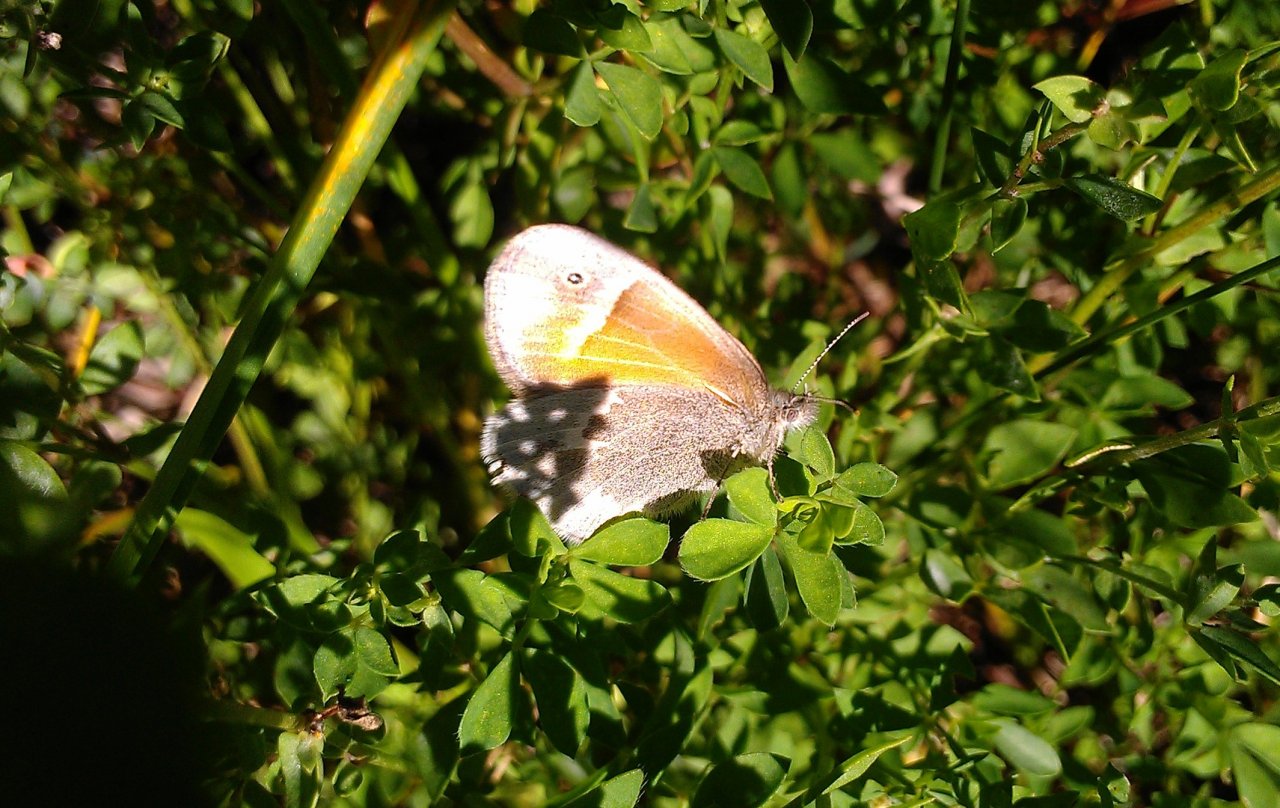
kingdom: Animalia
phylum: Arthropoda
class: Insecta
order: Lepidoptera
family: Nymphalidae
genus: Coenonympha
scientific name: Coenonympha tullia
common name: Large Heath
